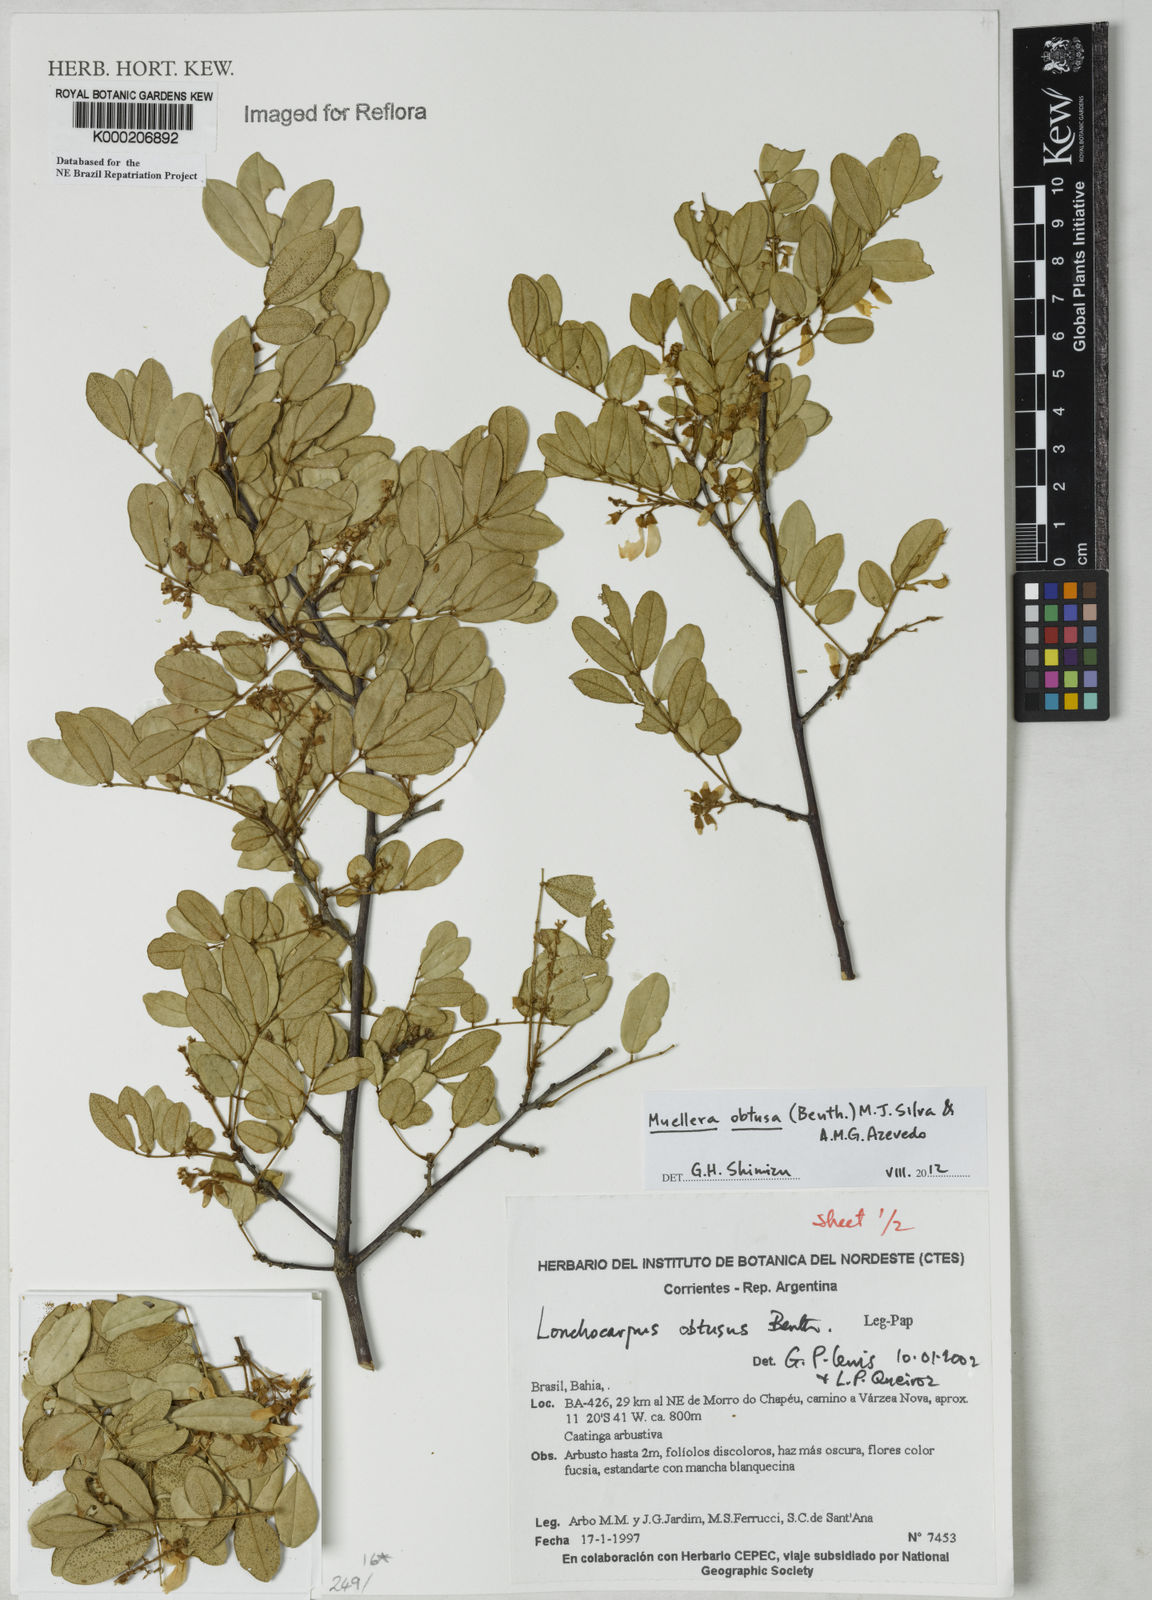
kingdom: Plantae
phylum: Tracheophyta
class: Magnoliopsida
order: Fabales
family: Fabaceae
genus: Muellera
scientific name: Muellera obtusa
